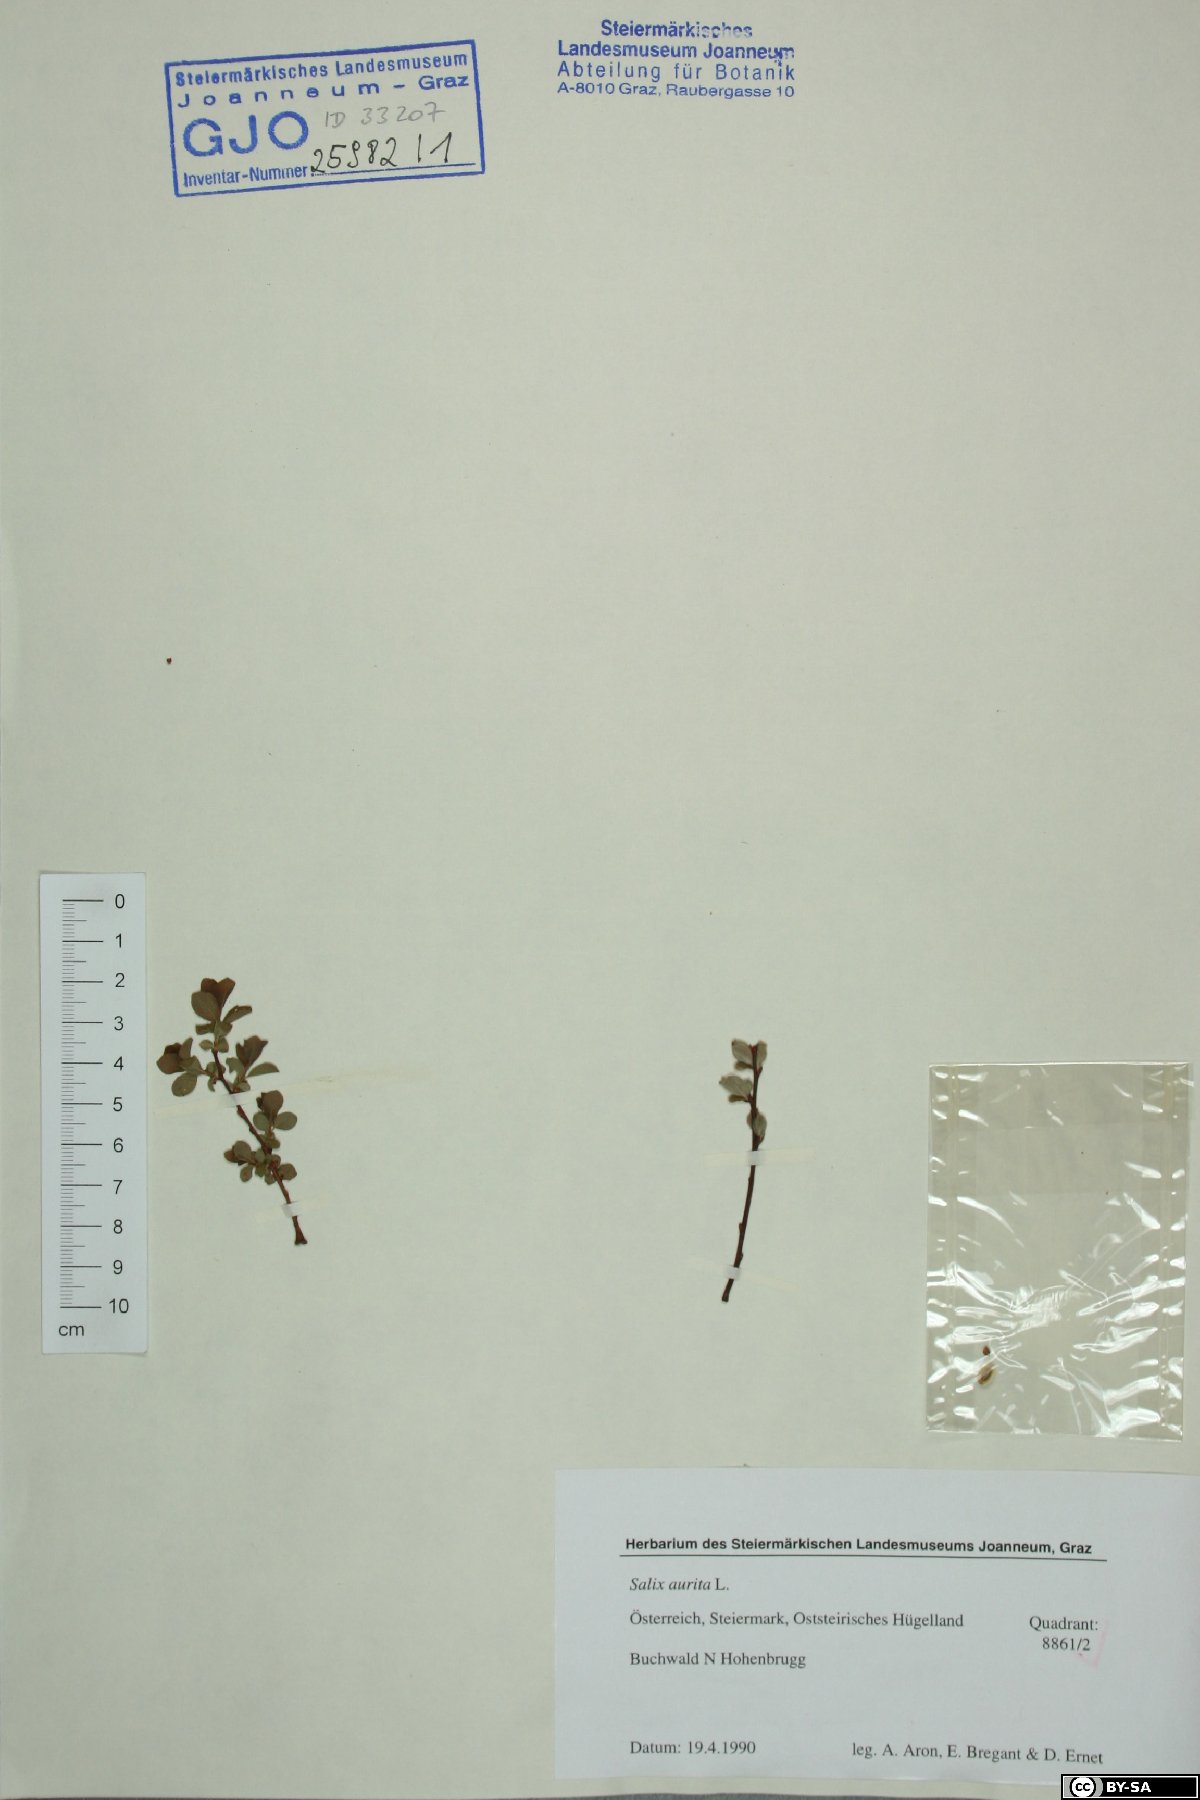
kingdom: Plantae
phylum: Tracheophyta
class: Magnoliopsida
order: Malpighiales
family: Salicaceae
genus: Salix
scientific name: Salix aurita
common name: Eared willow
